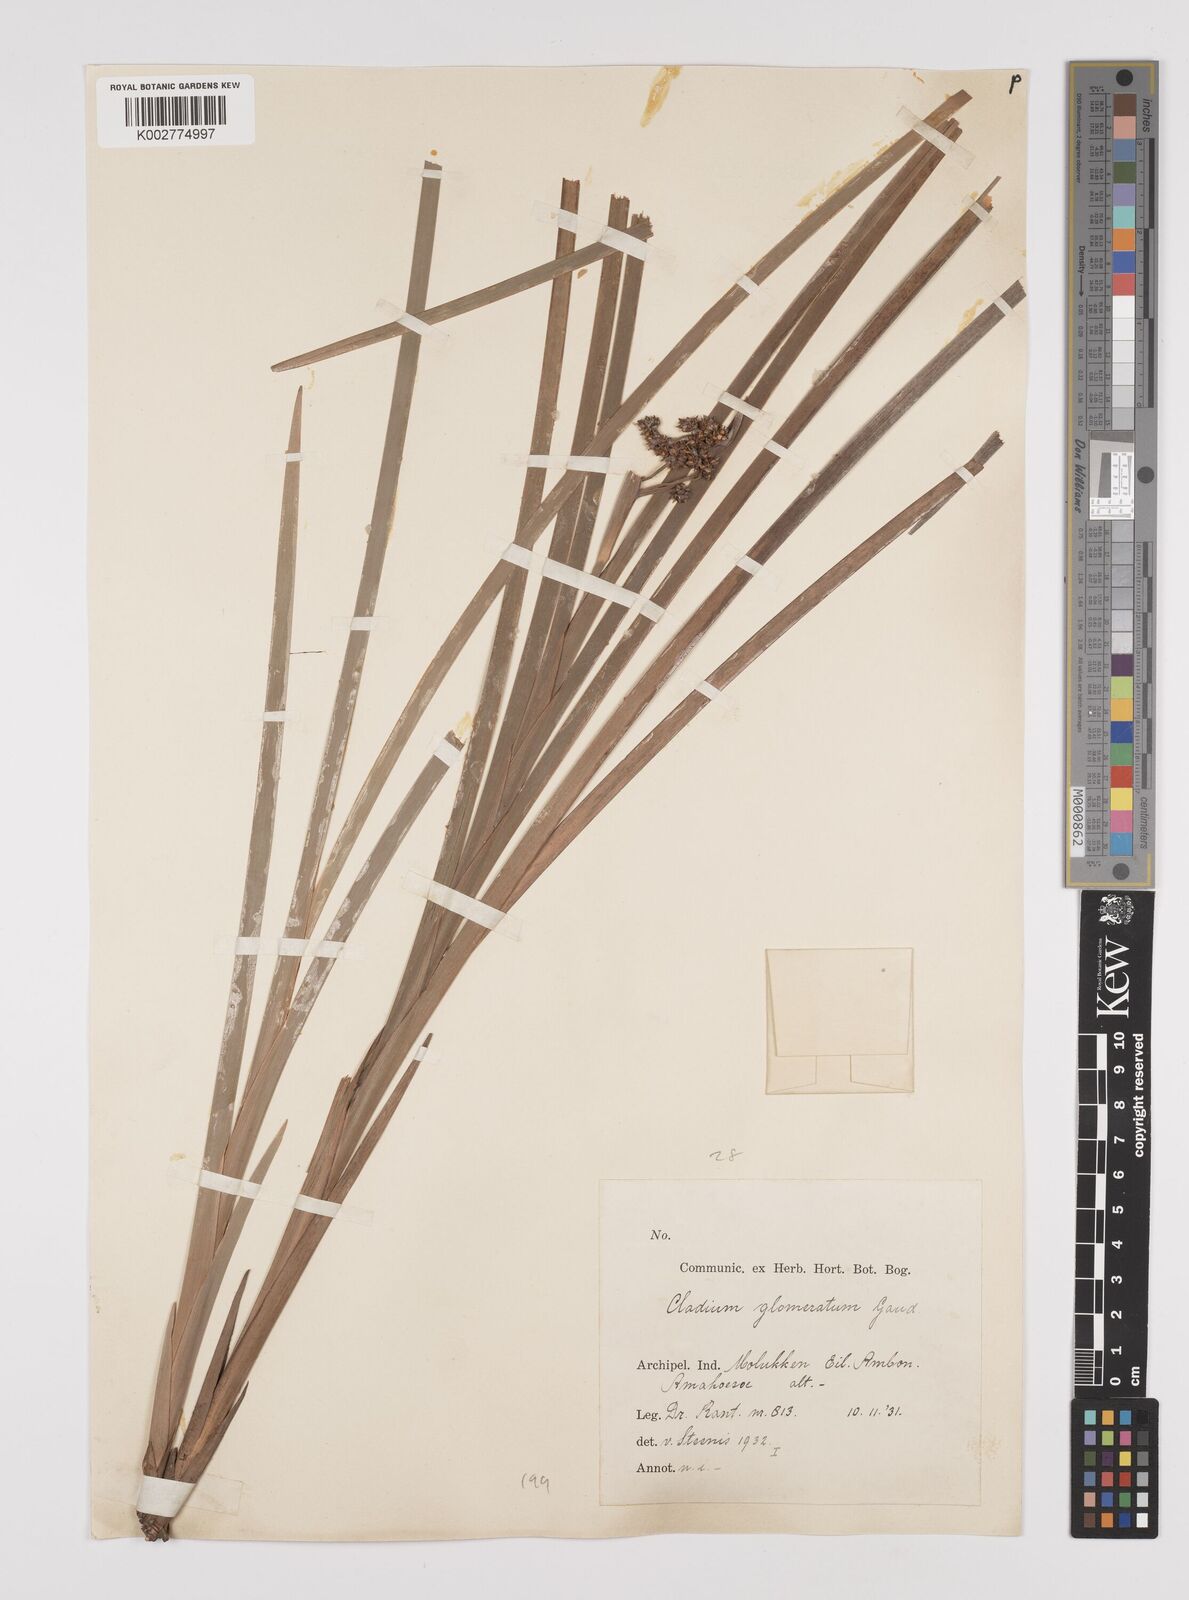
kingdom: Plantae
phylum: Tracheophyta
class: Liliopsida
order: Poales
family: Cyperaceae
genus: Machaerina
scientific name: Machaerina glomerata
